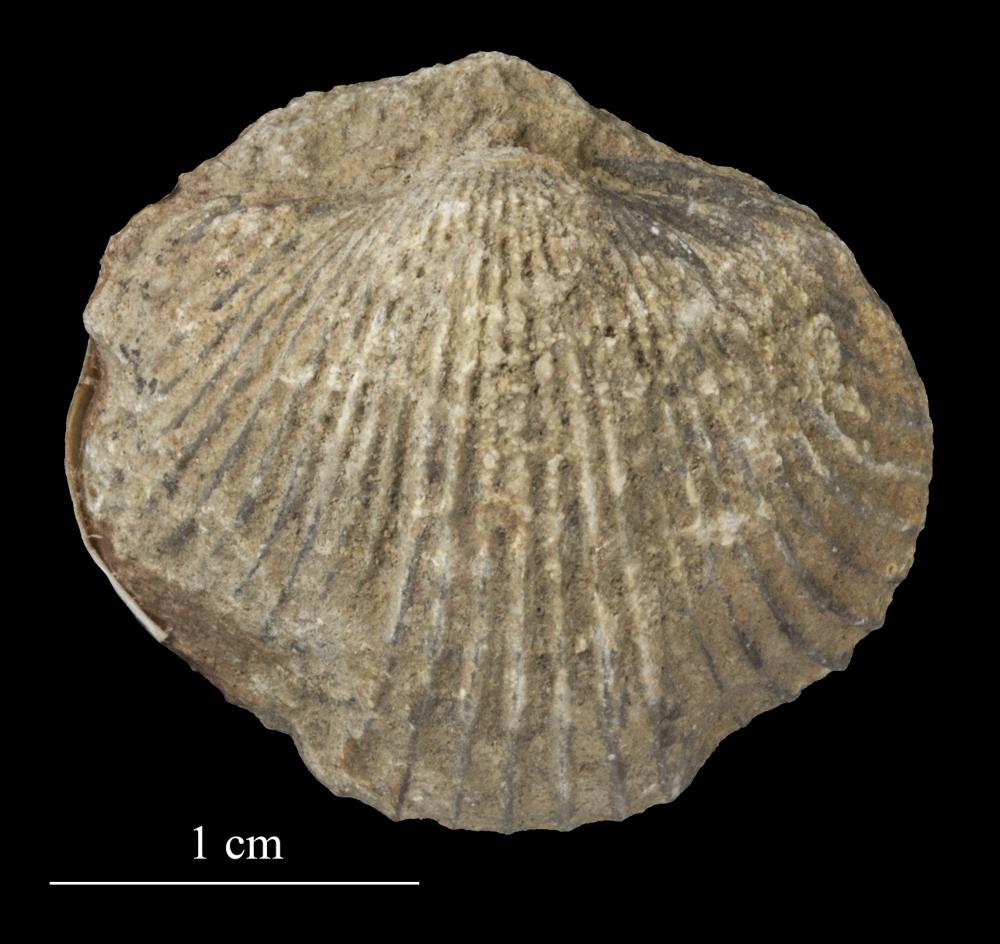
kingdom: Animalia
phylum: Brachiopoda
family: Strophomenidae
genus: Tallinnites
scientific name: Tallinnites Oepikina imbrexoidea
